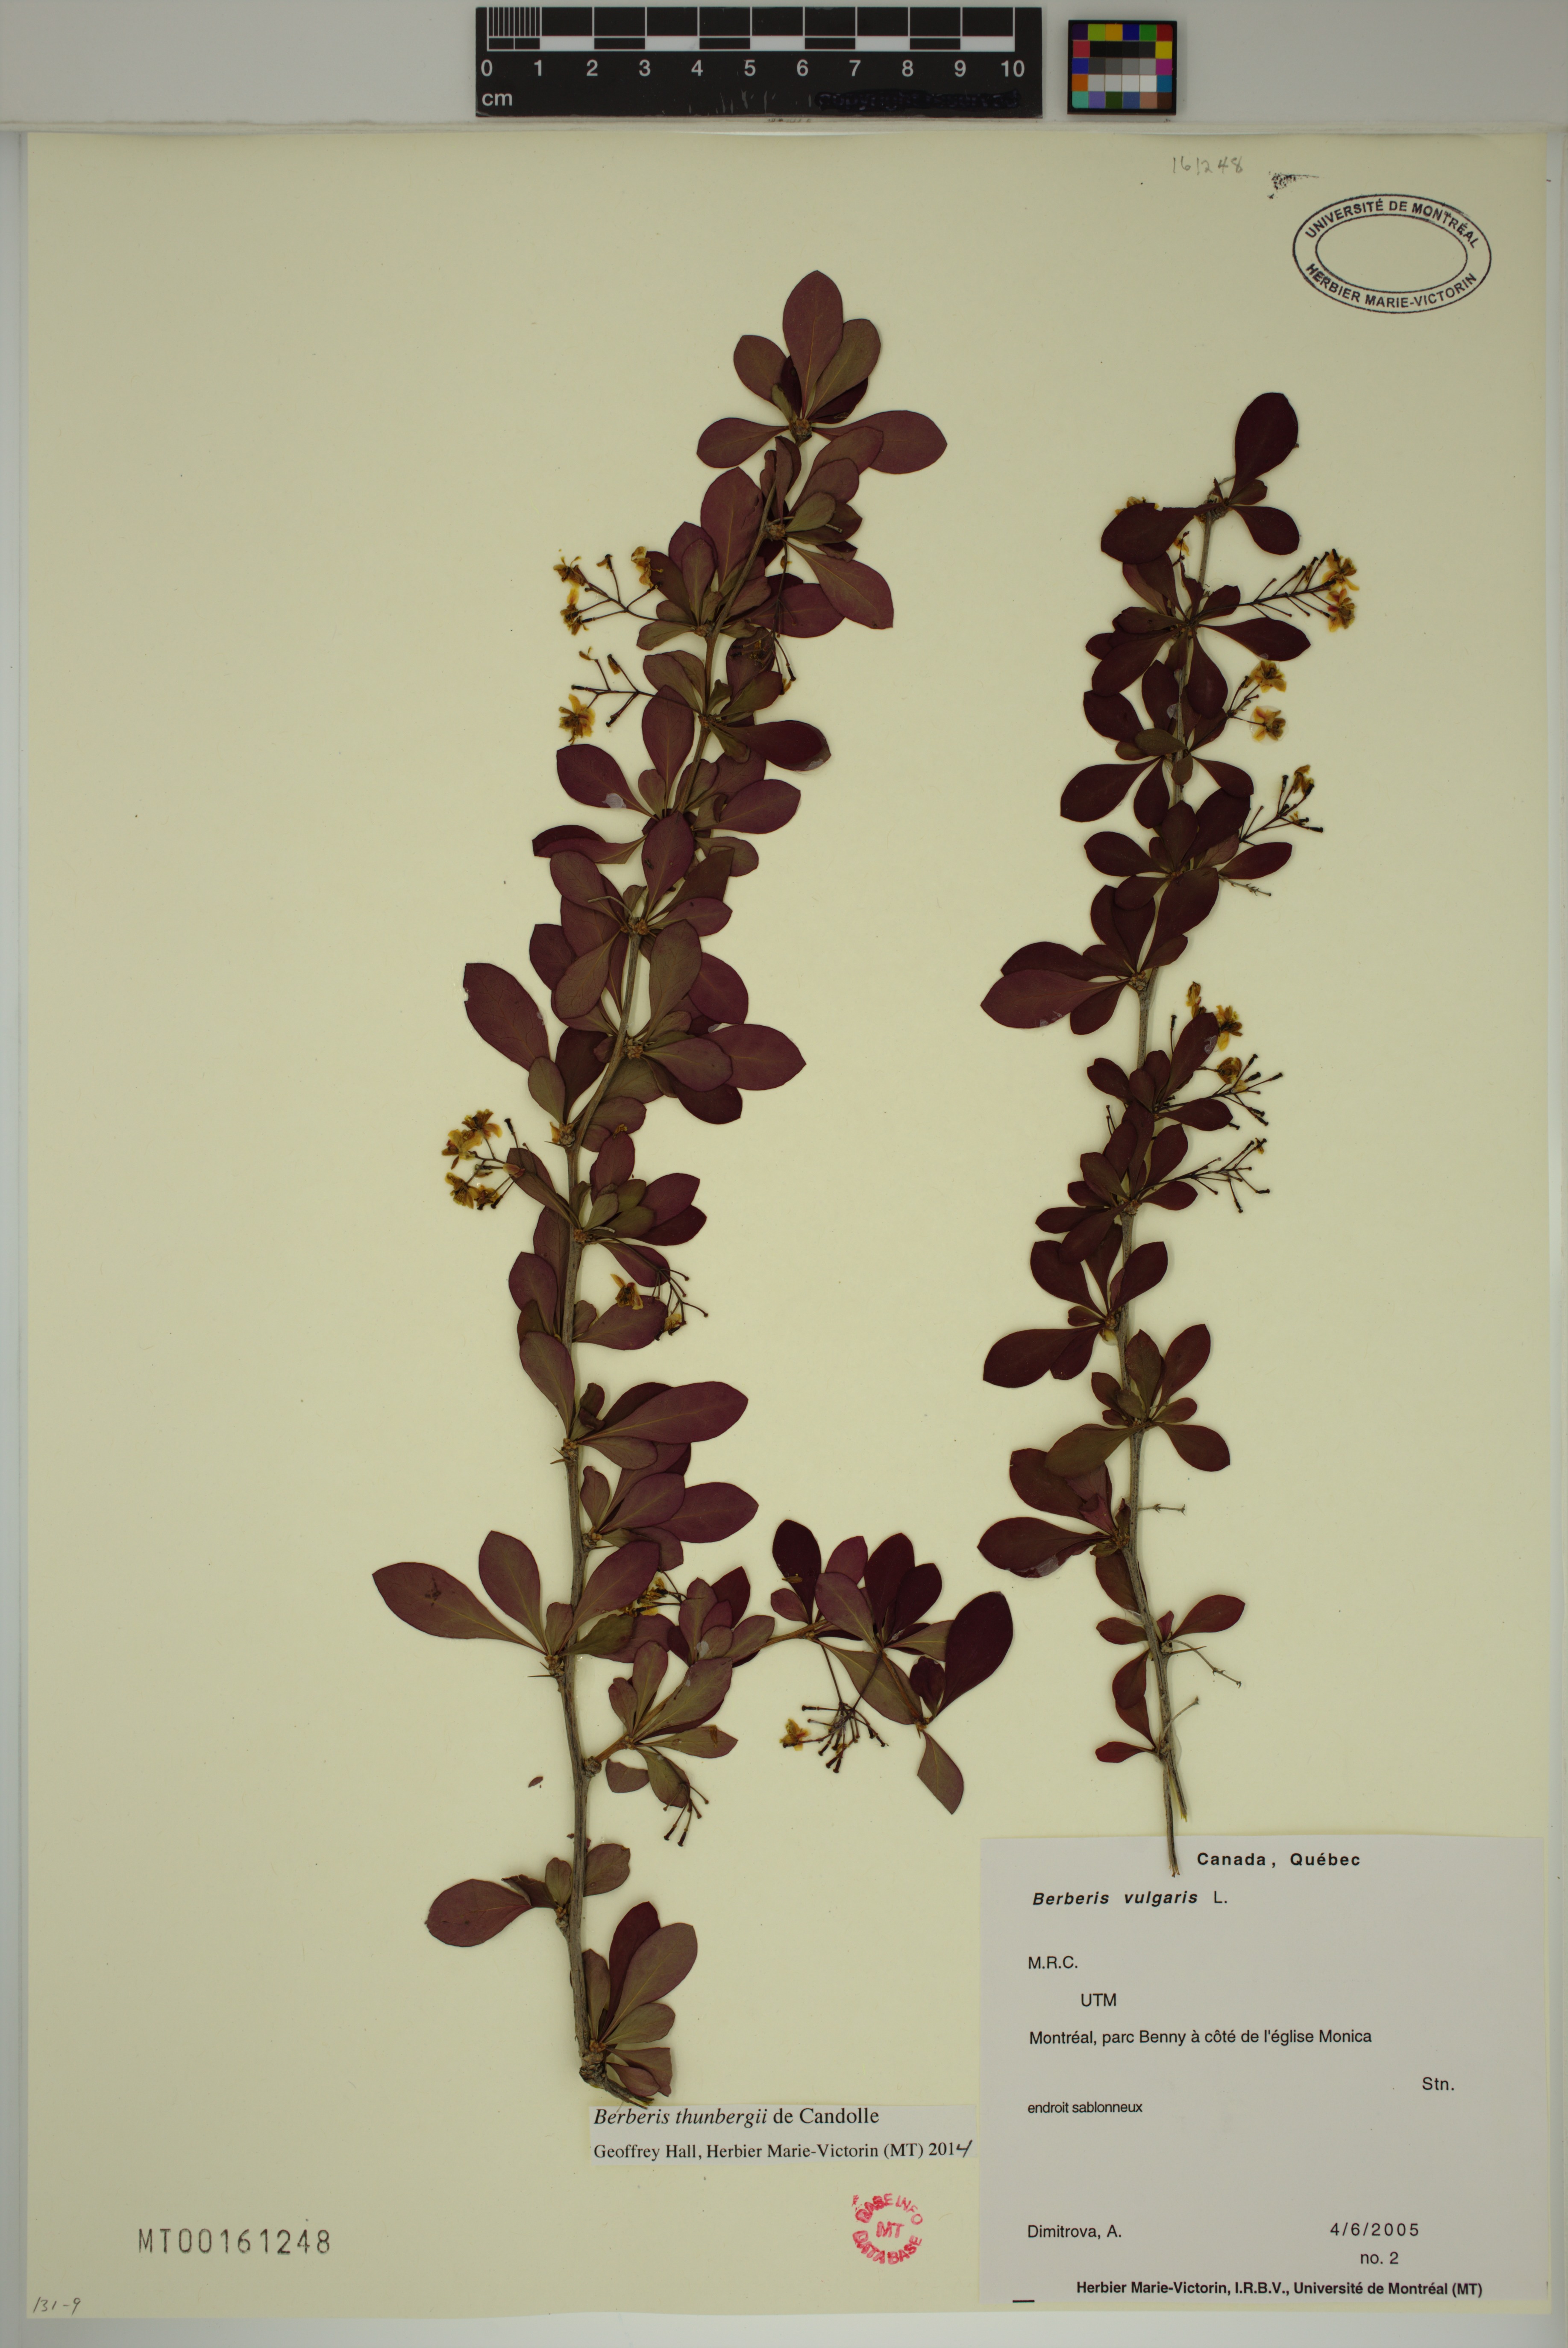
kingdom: Plantae
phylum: Tracheophyta
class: Magnoliopsida
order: Ranunculales
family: Berberidaceae
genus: Berberis
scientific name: Berberis thunbergii
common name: Japanese barberry
